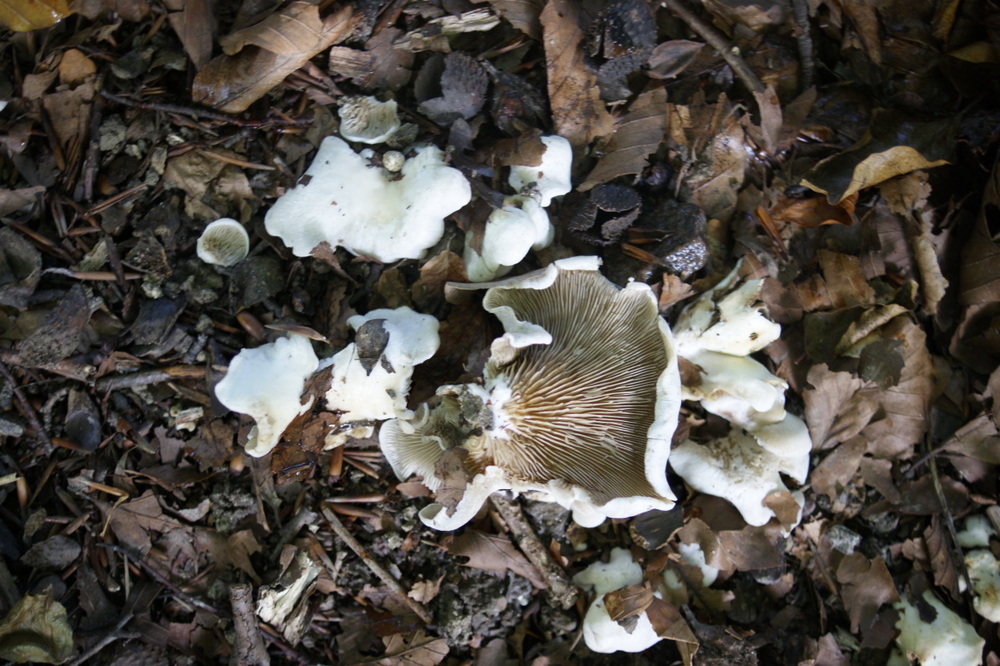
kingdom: Fungi
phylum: Basidiomycota
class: Agaricomycetes
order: Agaricales
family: Crepidotaceae
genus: Crepidotus
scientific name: Crepidotus autochthonus
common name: skæv muslingesvamp
